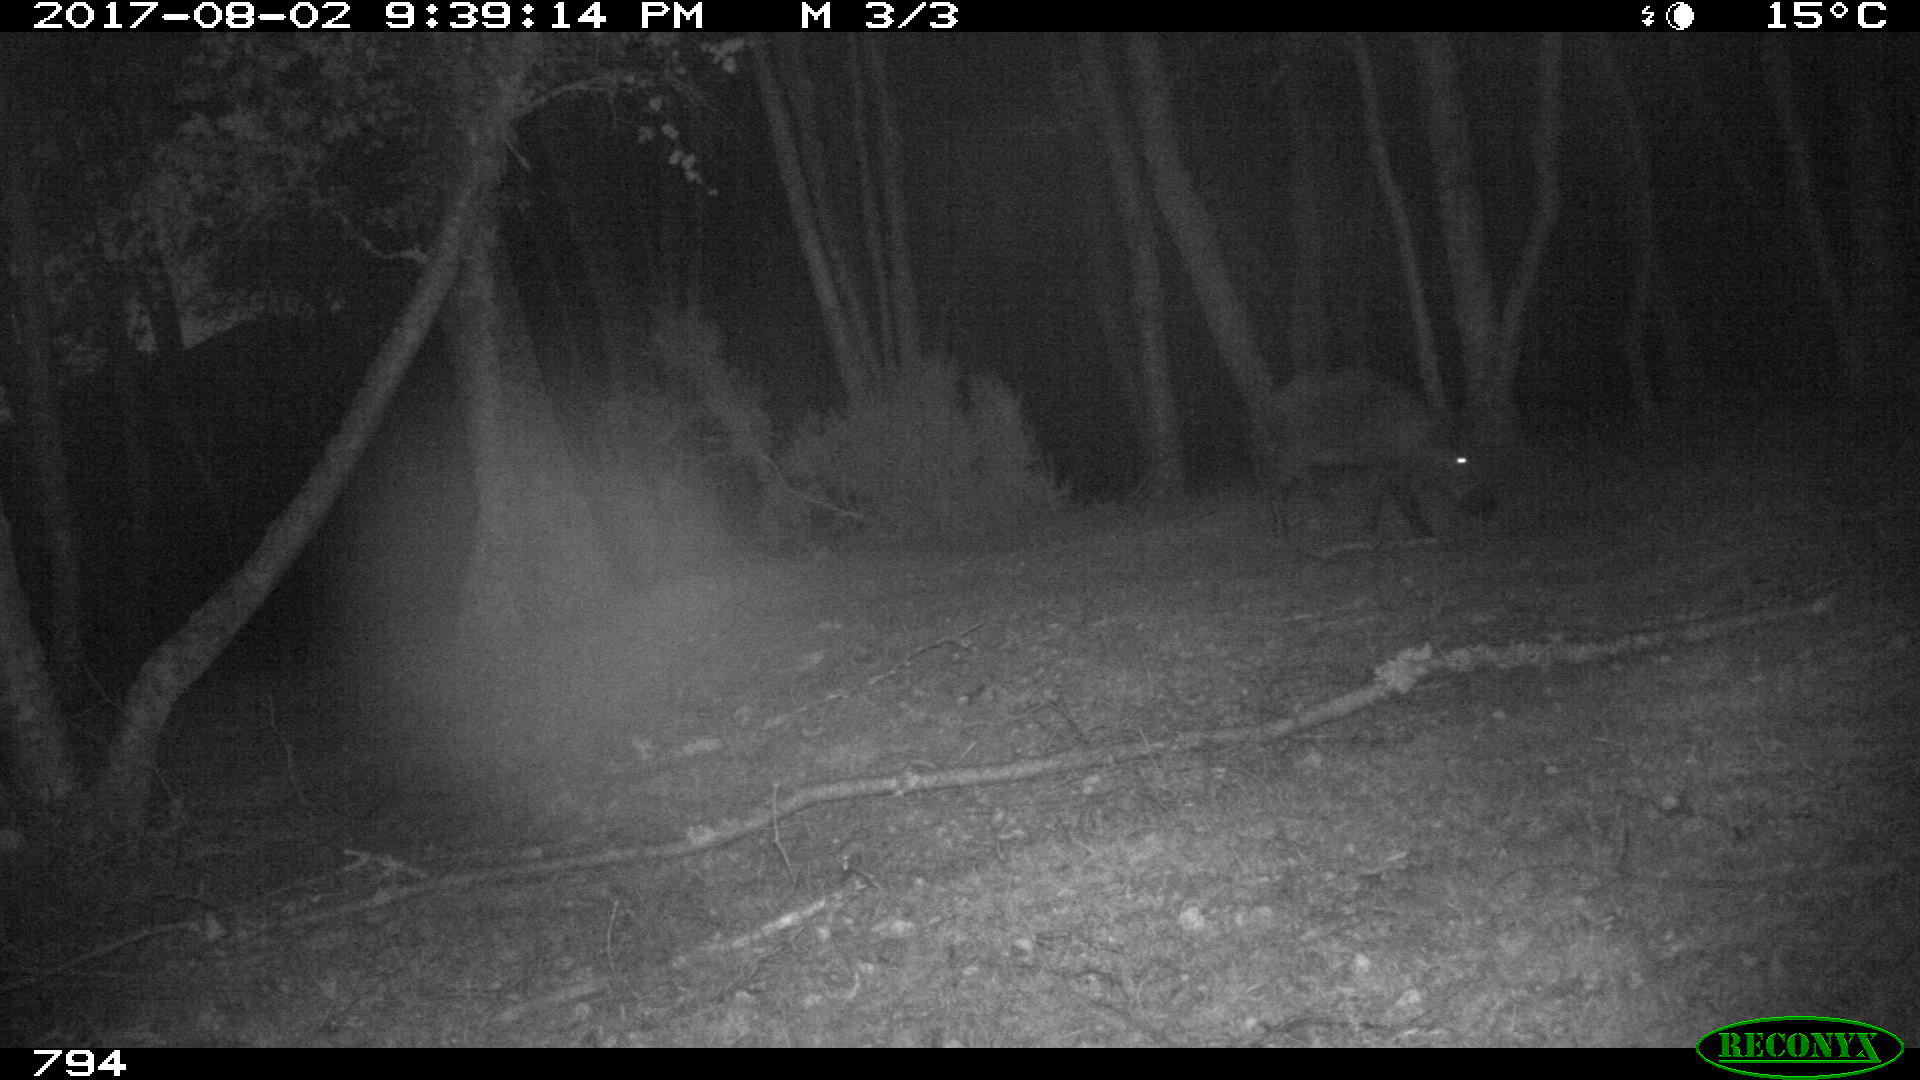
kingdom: Animalia
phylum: Chordata
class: Mammalia
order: Artiodactyla
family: Suidae
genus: Sus
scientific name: Sus scrofa
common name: Wild boar
